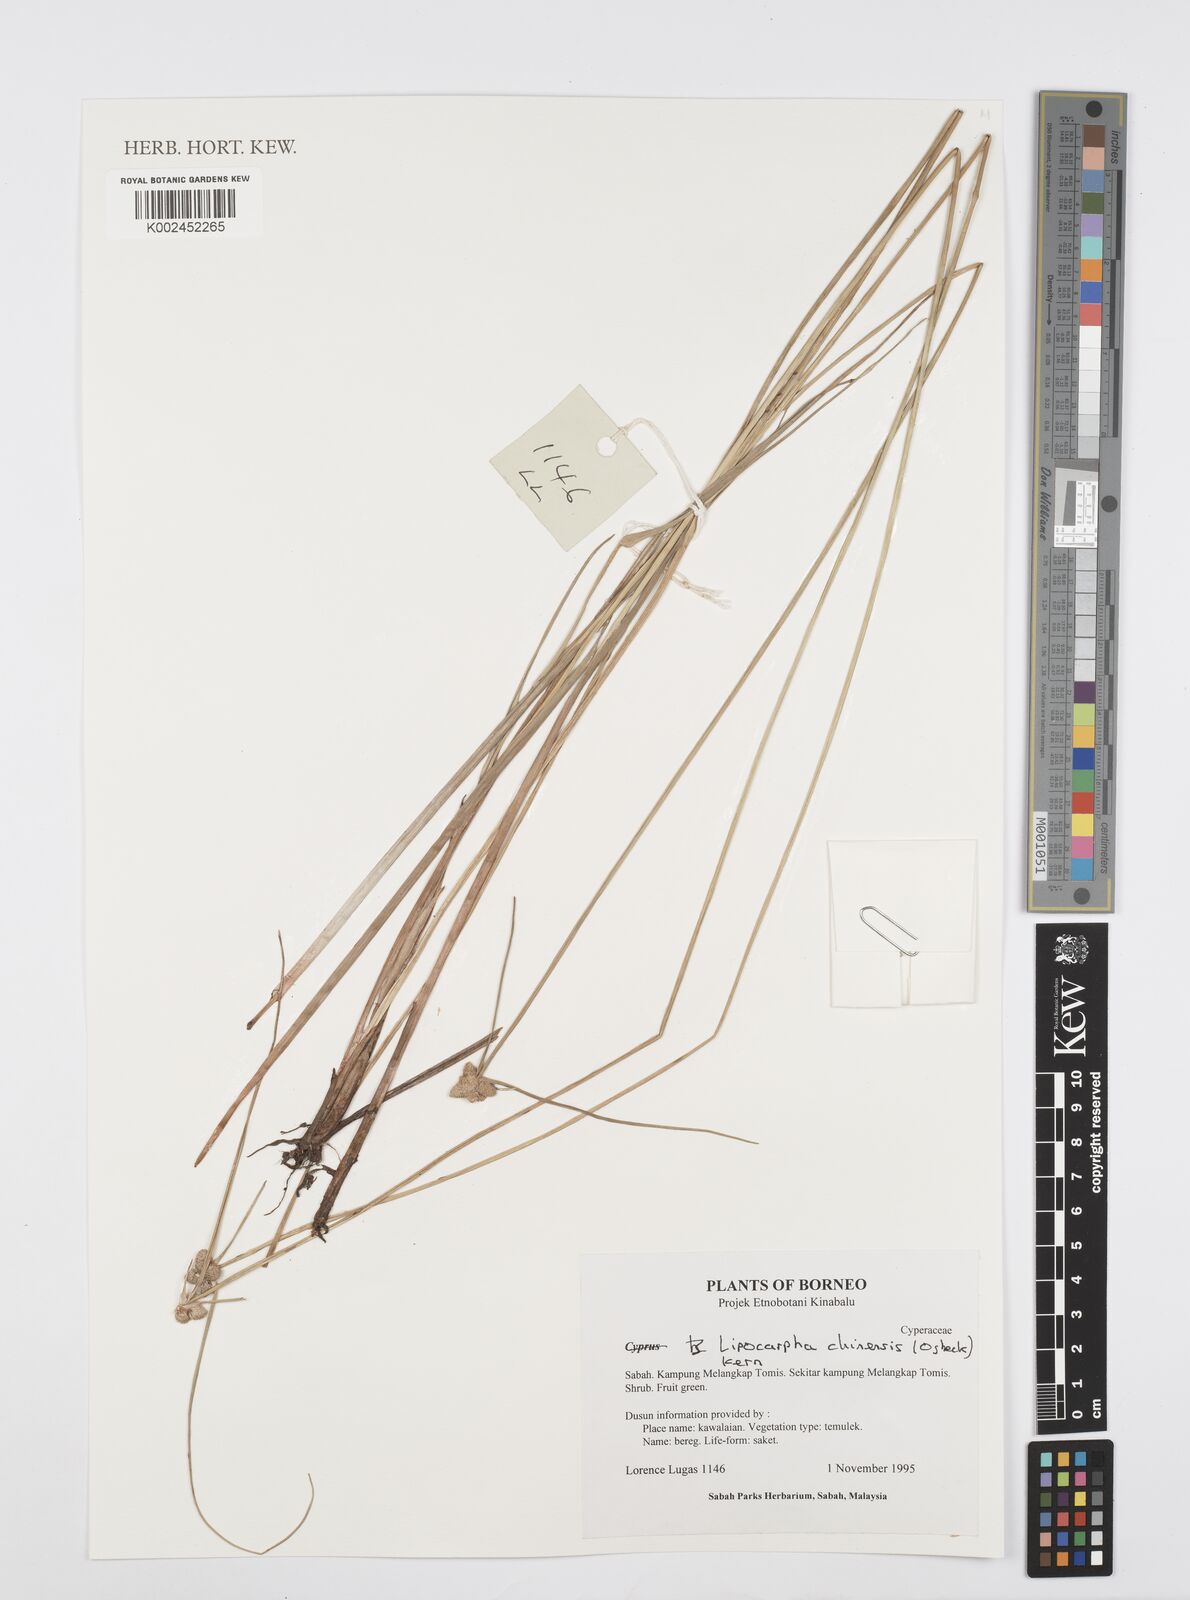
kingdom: Plantae
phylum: Tracheophyta
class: Liliopsida
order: Poales
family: Cyperaceae
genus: Cyperus
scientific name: Cyperus
